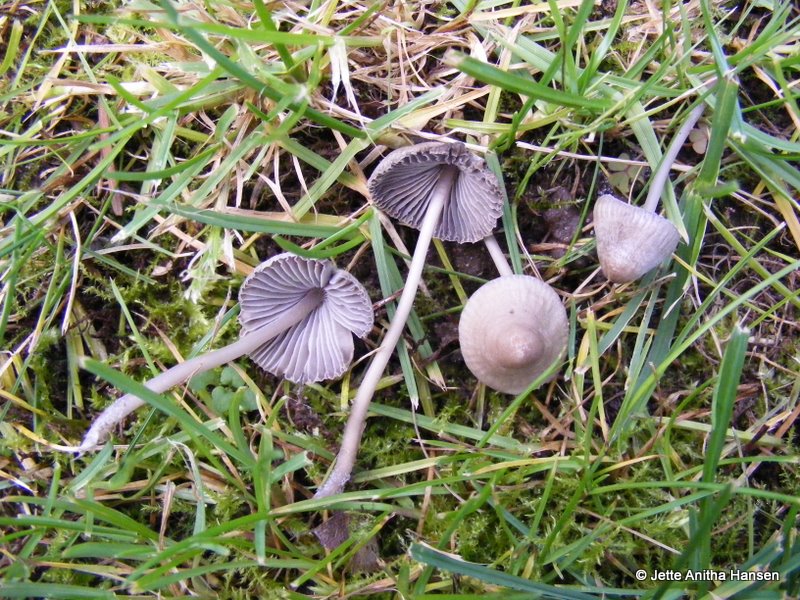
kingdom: Fungi
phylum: Basidiomycota
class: Agaricomycetes
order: Agaricales
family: Mycenaceae
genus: Mycena
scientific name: Mycena aetites
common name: plæne-huesvamp
